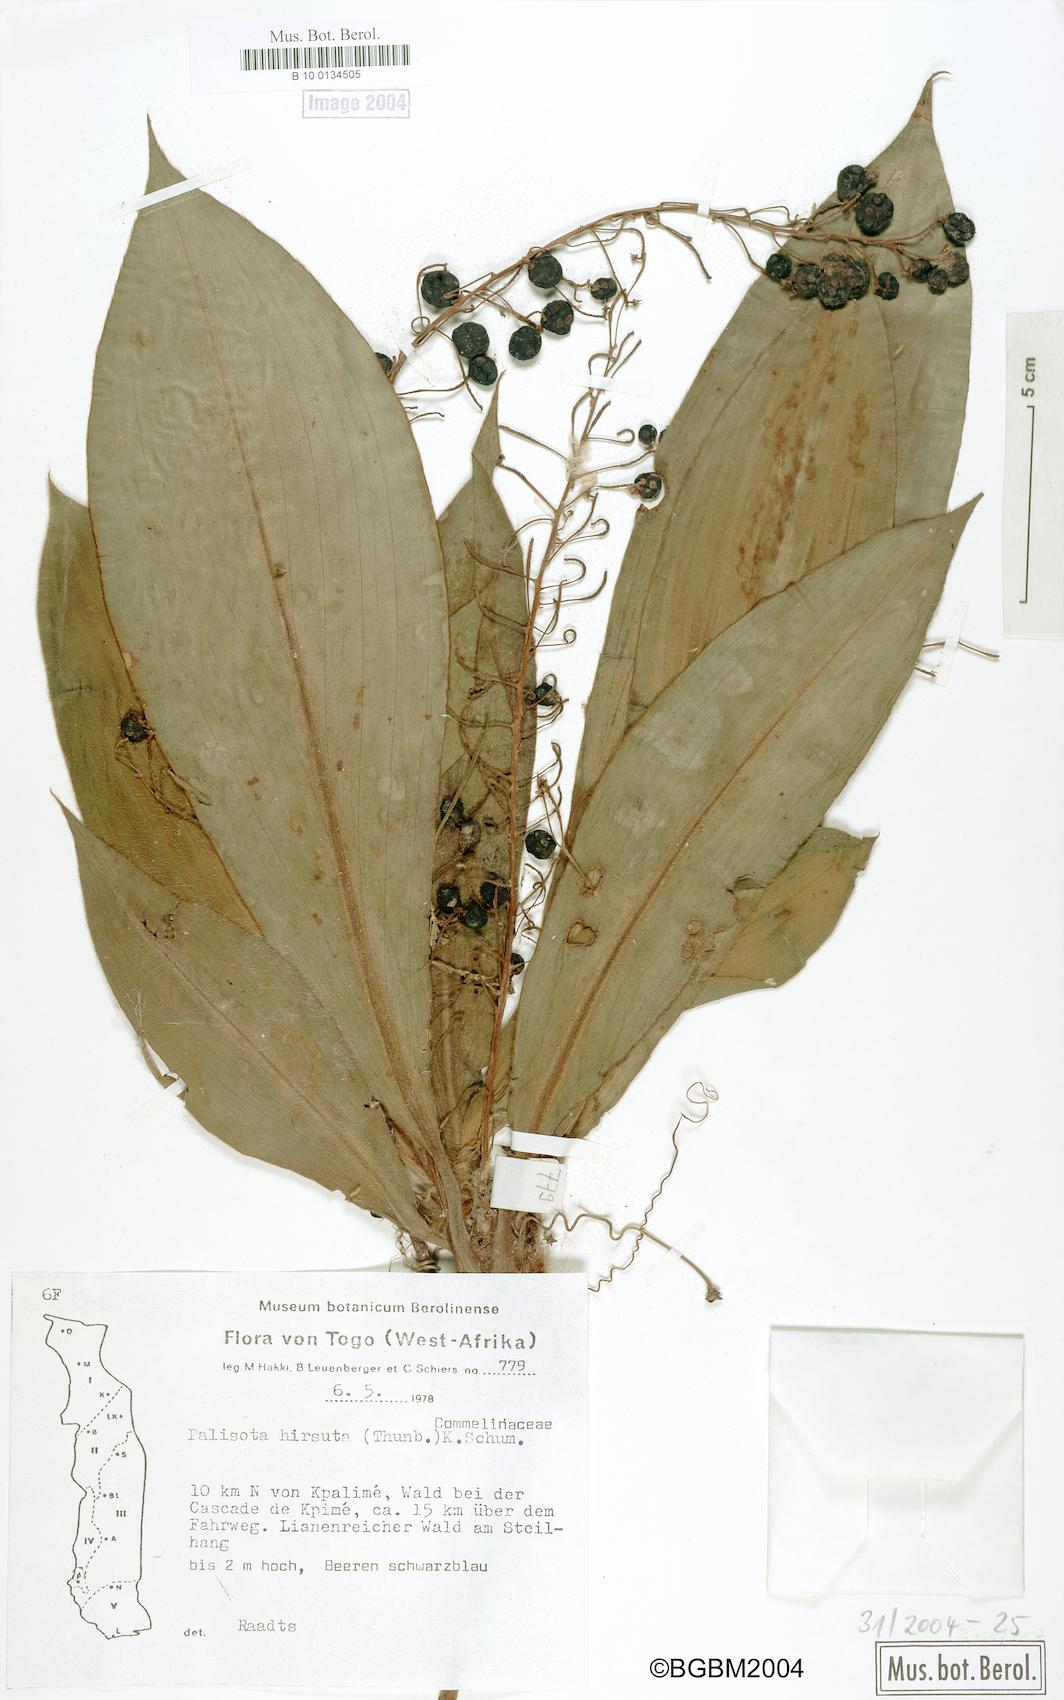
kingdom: Plantae
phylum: Tracheophyta
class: Liliopsida
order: Commelinales
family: Commelinaceae
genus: Palisota
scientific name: Palisota hirsuta
